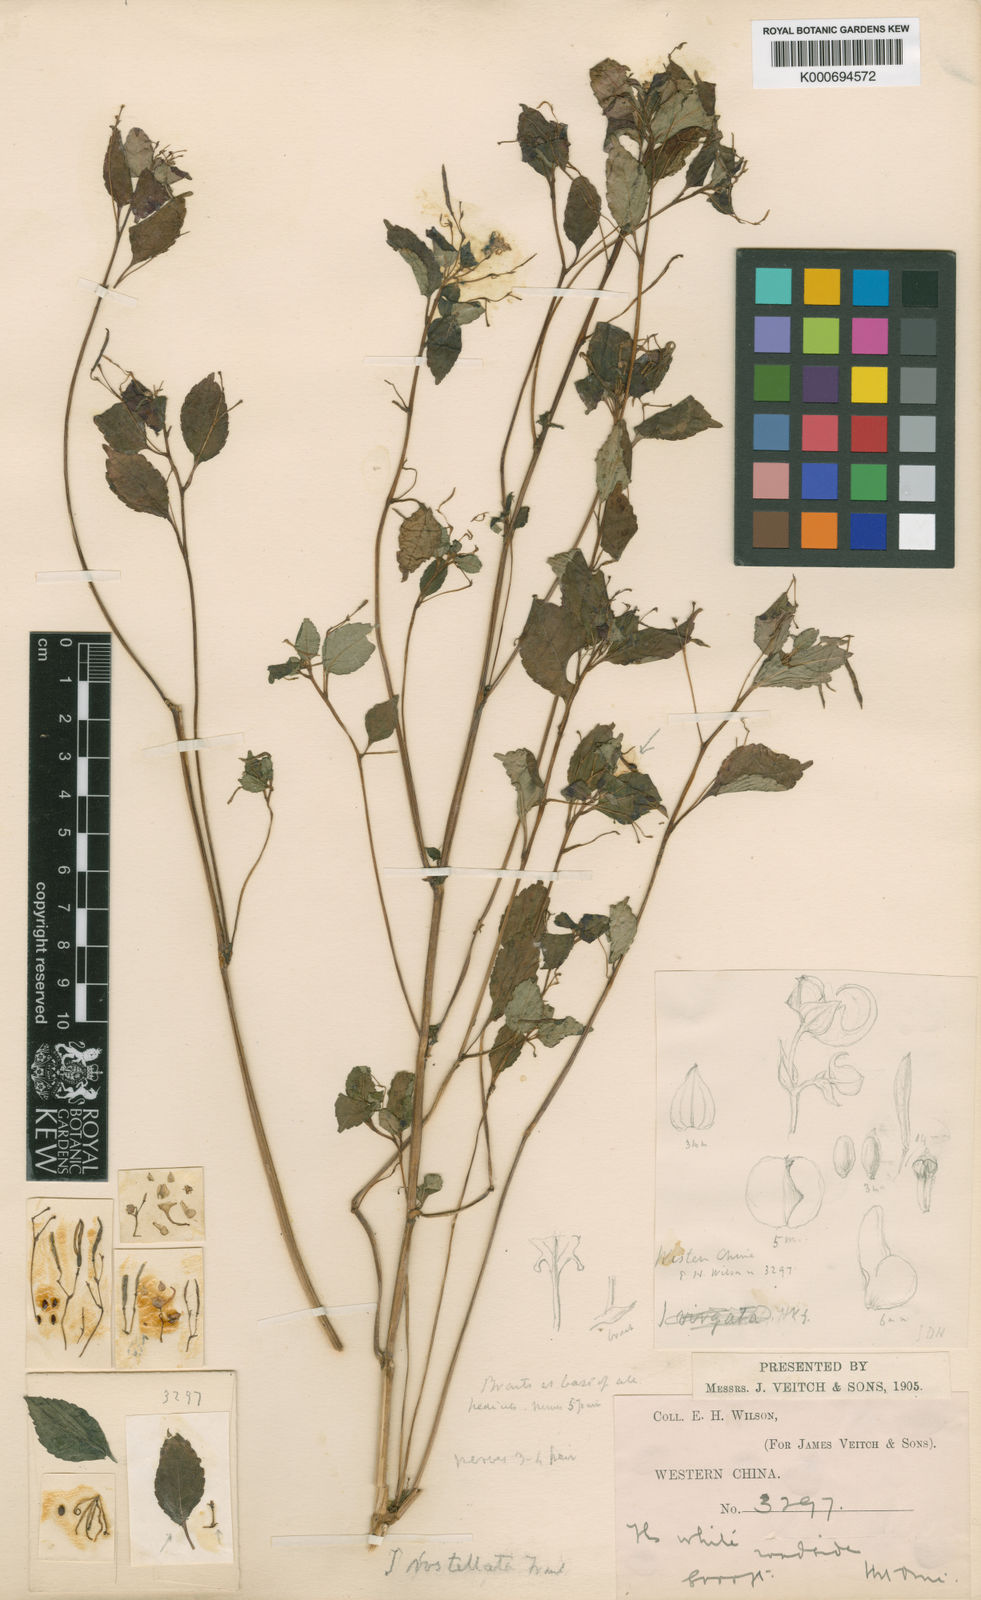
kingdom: Plantae
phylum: Tracheophyta
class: Magnoliopsida
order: Ericales
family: Balsaminaceae
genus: Impatiens
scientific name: Impatiens rostellata
